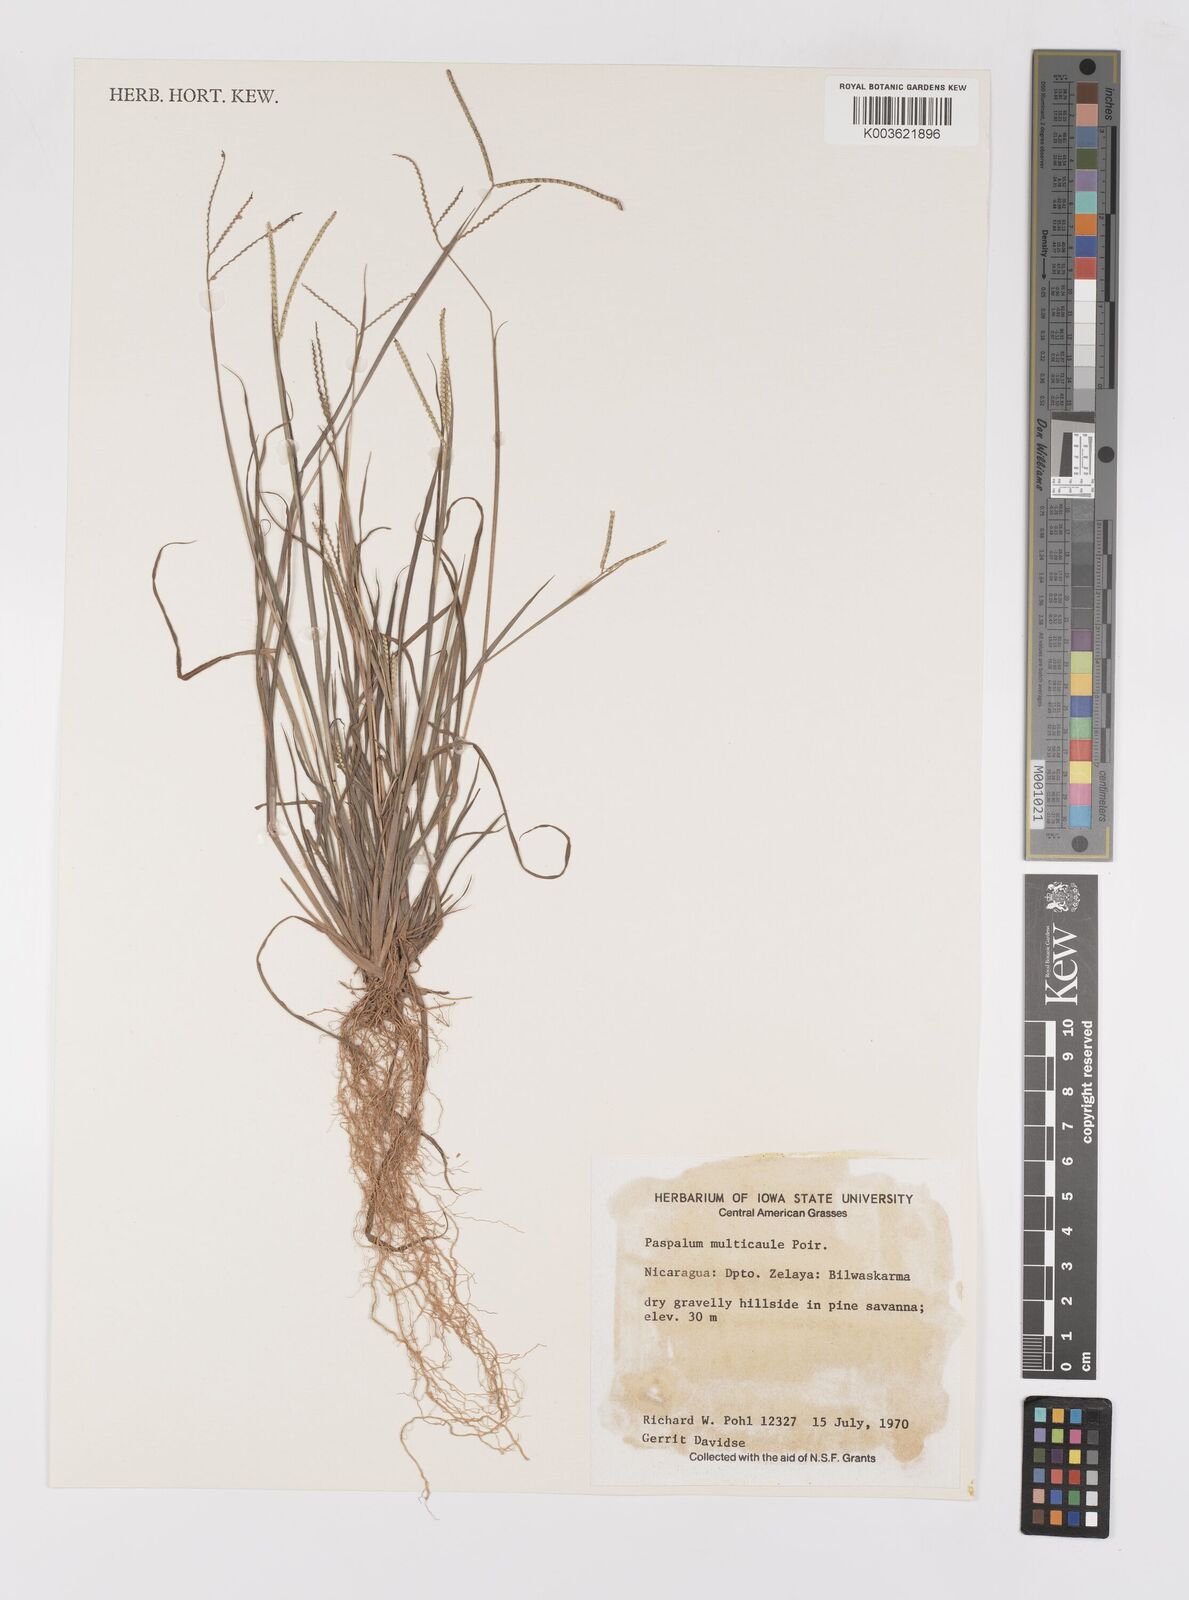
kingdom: Plantae
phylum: Tracheophyta
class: Liliopsida
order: Poales
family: Poaceae
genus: Paspalum
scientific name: Paspalum multicaule
